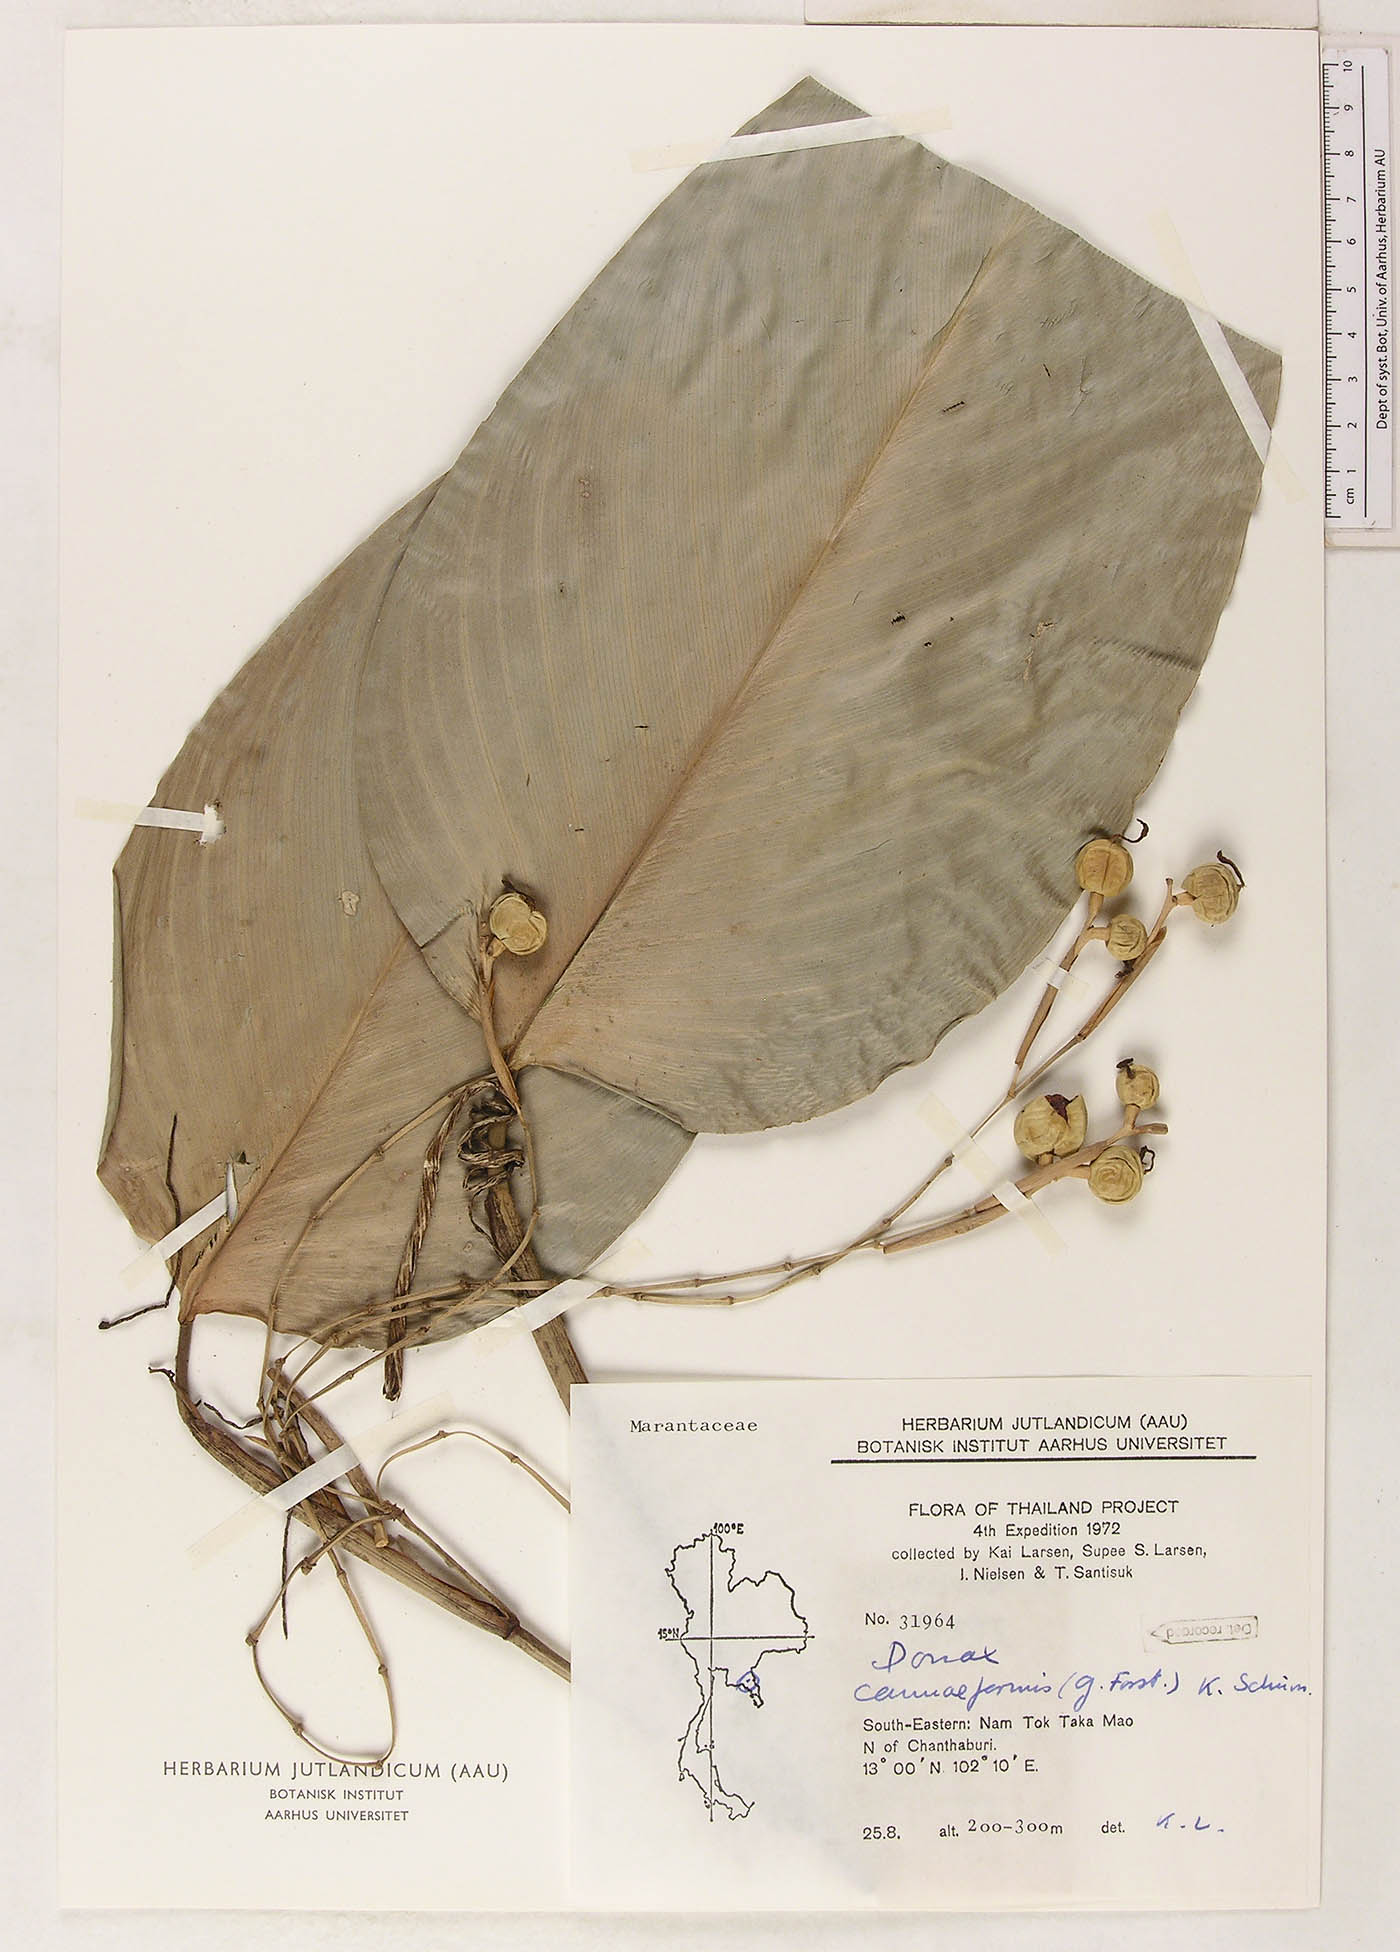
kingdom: Plantae
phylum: Tracheophyta
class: Liliopsida
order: Zingiberales
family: Marantaceae
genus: Donax
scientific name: Donax canniformis
